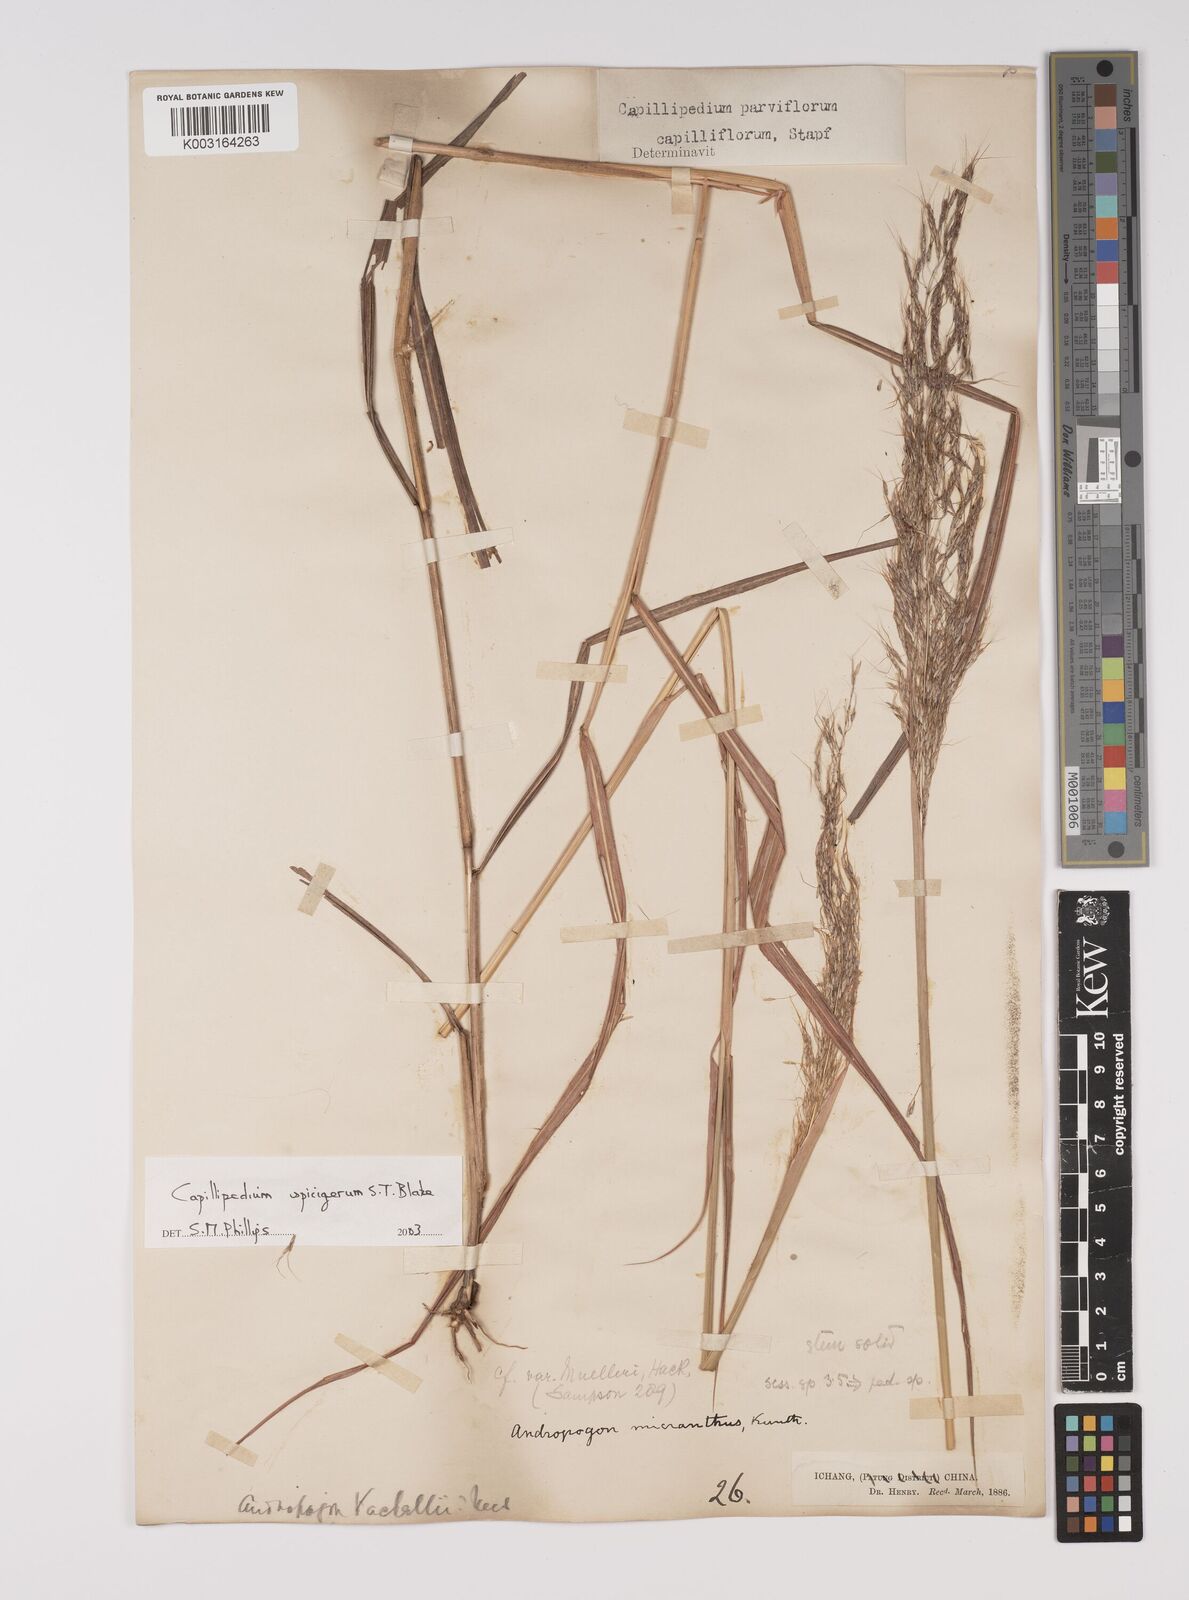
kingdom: Plantae
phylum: Tracheophyta
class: Liliopsida
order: Poales
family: Poaceae
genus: Capillipedium
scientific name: Capillipedium spicigerum
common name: Scented-top grass
